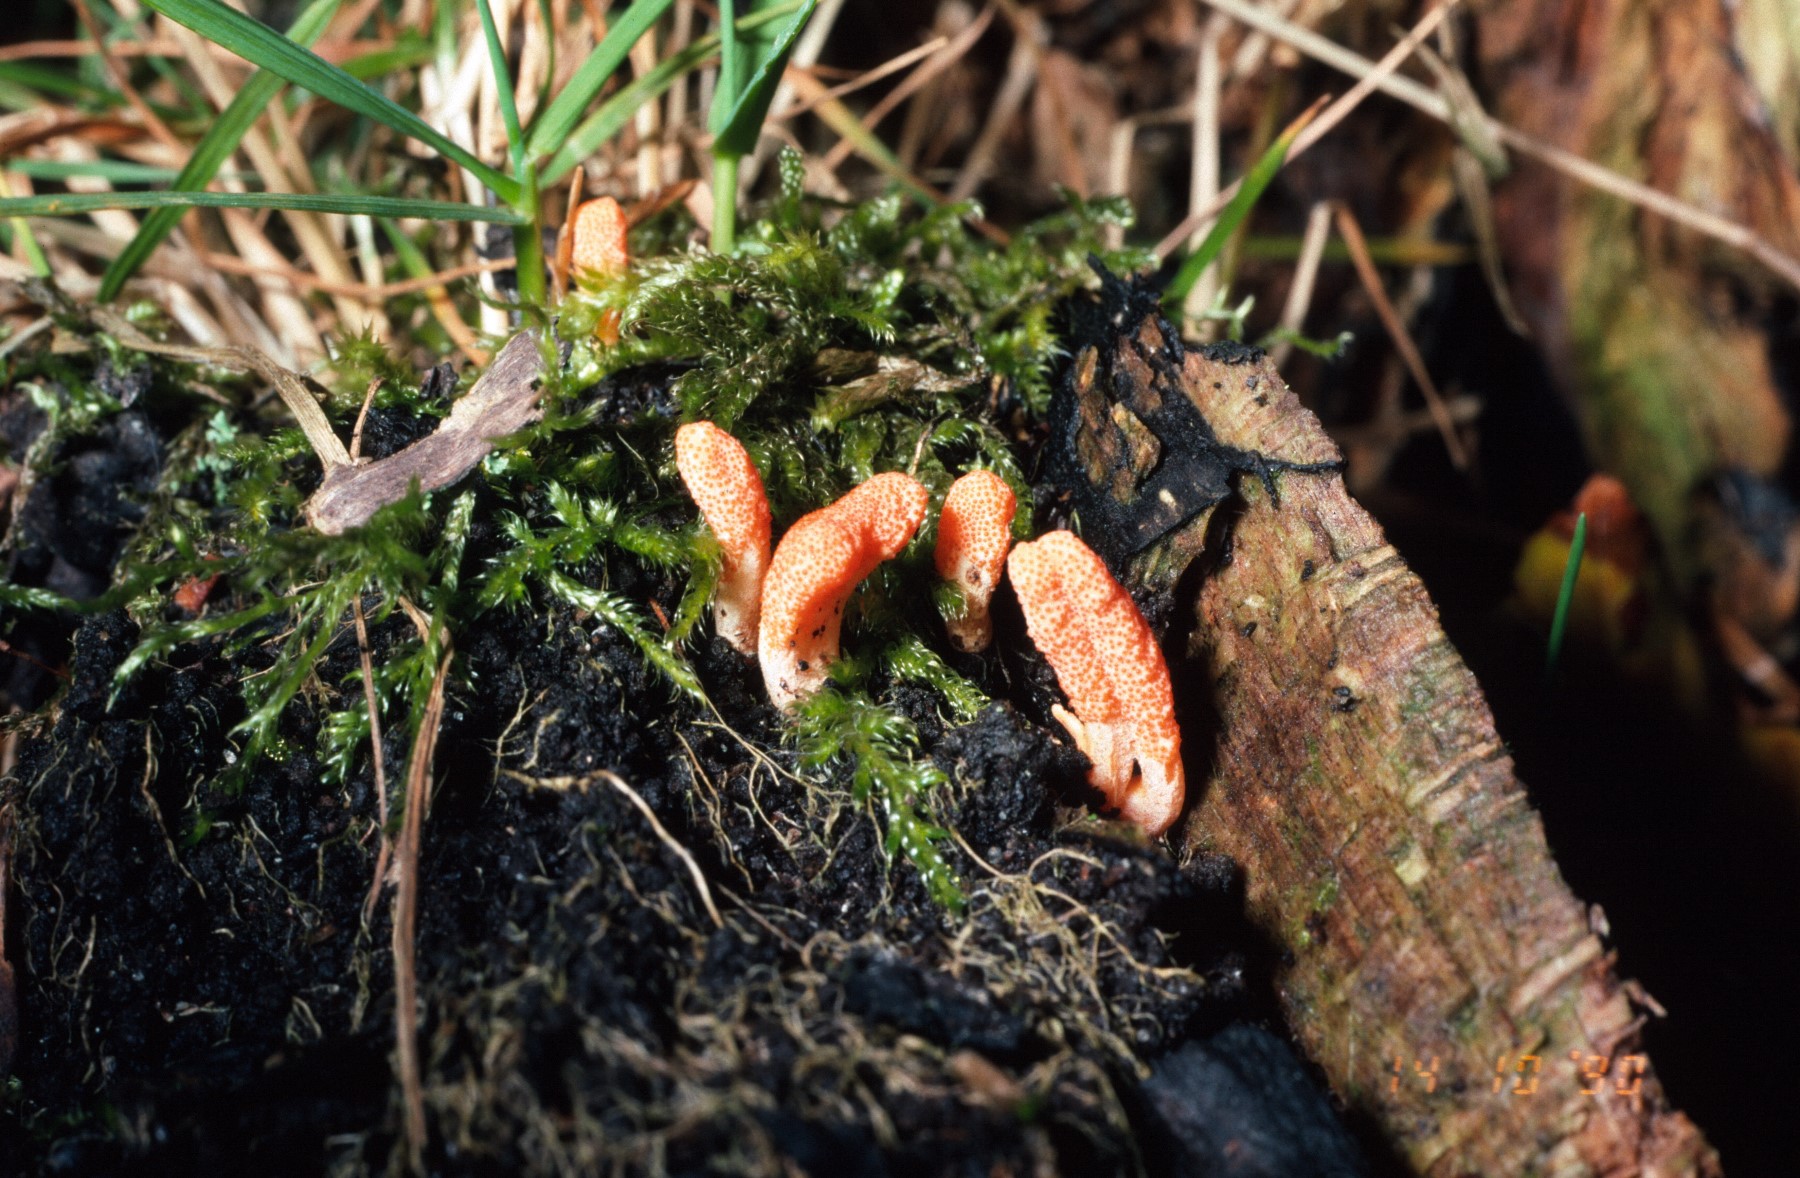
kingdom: Fungi
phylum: Ascomycota
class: Sordariomycetes
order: Hypocreales
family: Cordycipitaceae
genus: Cordyceps
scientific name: Cordyceps militaris
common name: puppe-snyltekølle
